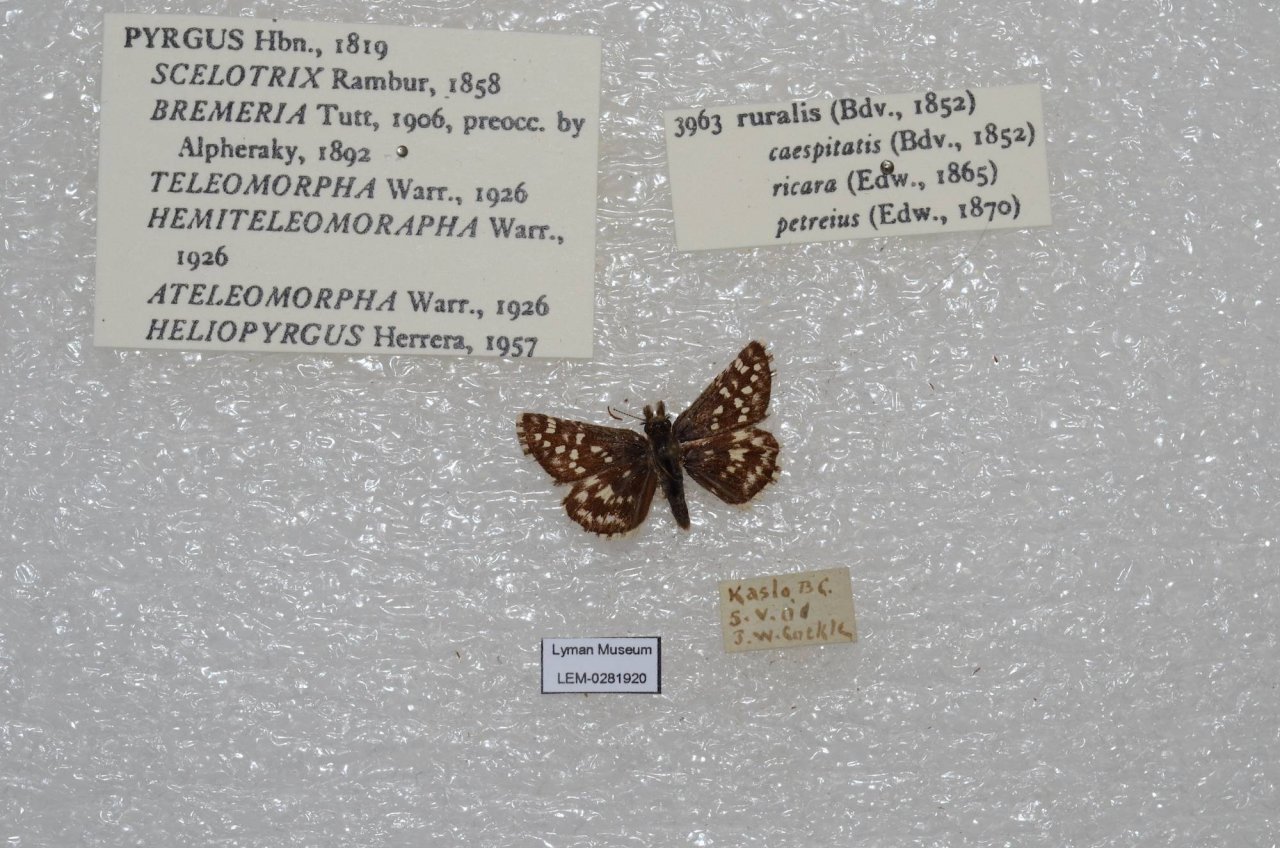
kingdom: Animalia
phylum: Arthropoda
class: Insecta
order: Lepidoptera
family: Hesperiidae
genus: Pyrgus
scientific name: Pyrgus ruralis
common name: Two-banded Checkered-Skipper
